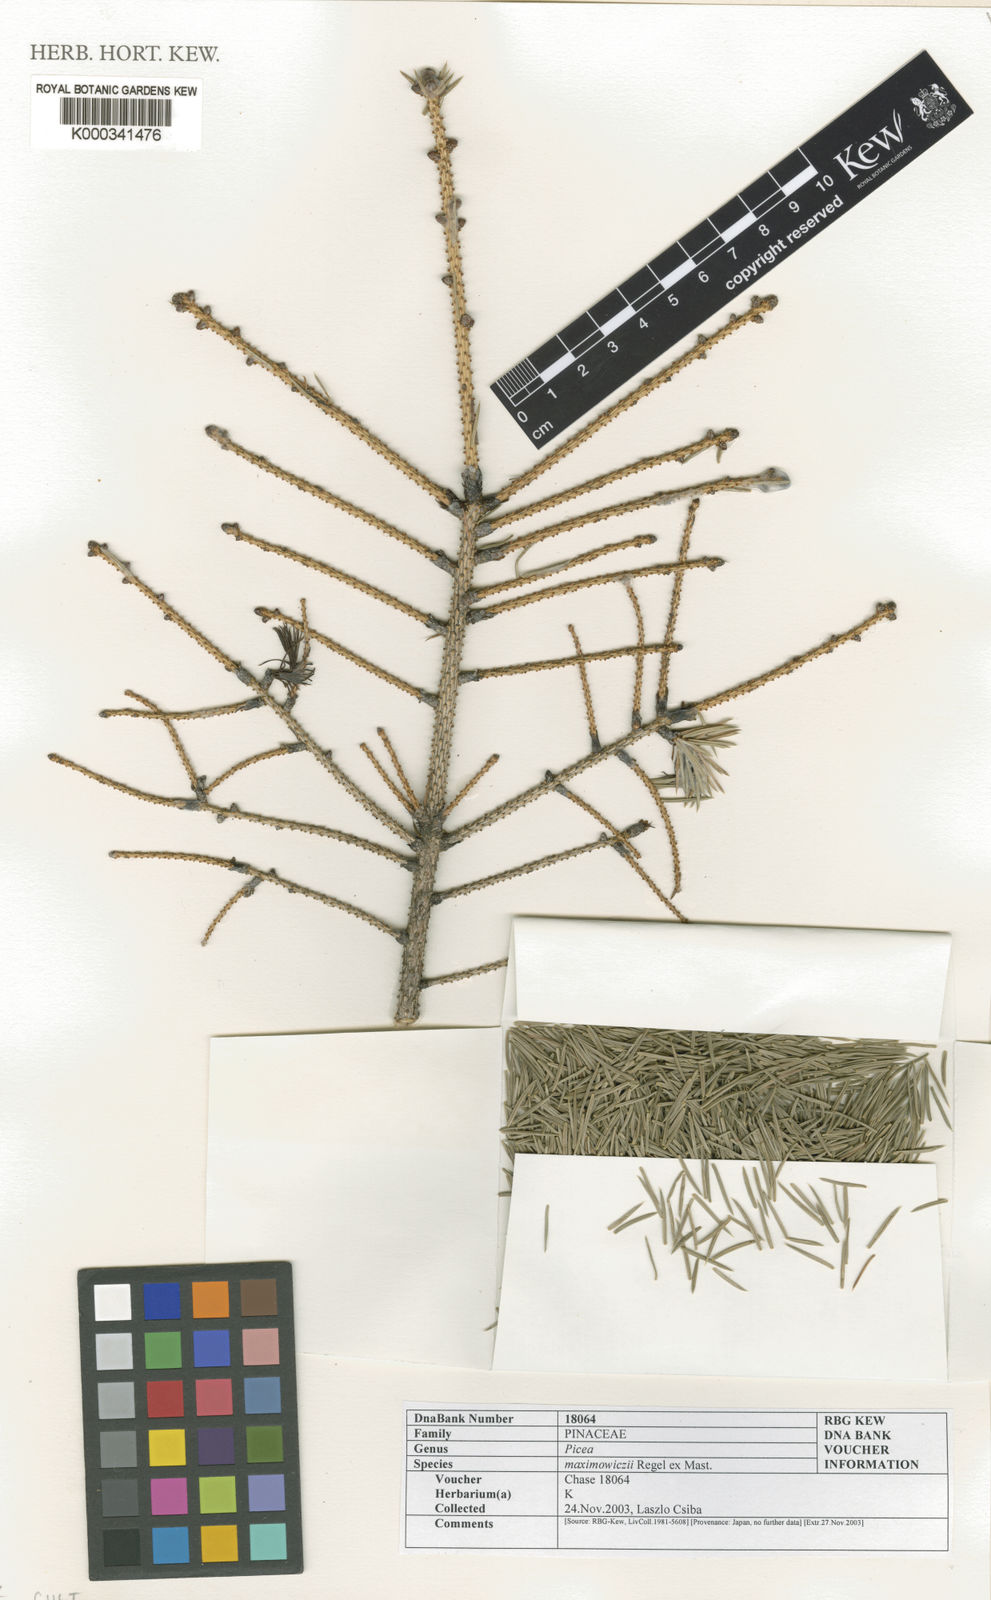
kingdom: Plantae
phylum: Tracheophyta
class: Pinopsida
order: Pinales
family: Pinaceae
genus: Picea
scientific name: Picea maximowiczii
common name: Japanese bush spruce
